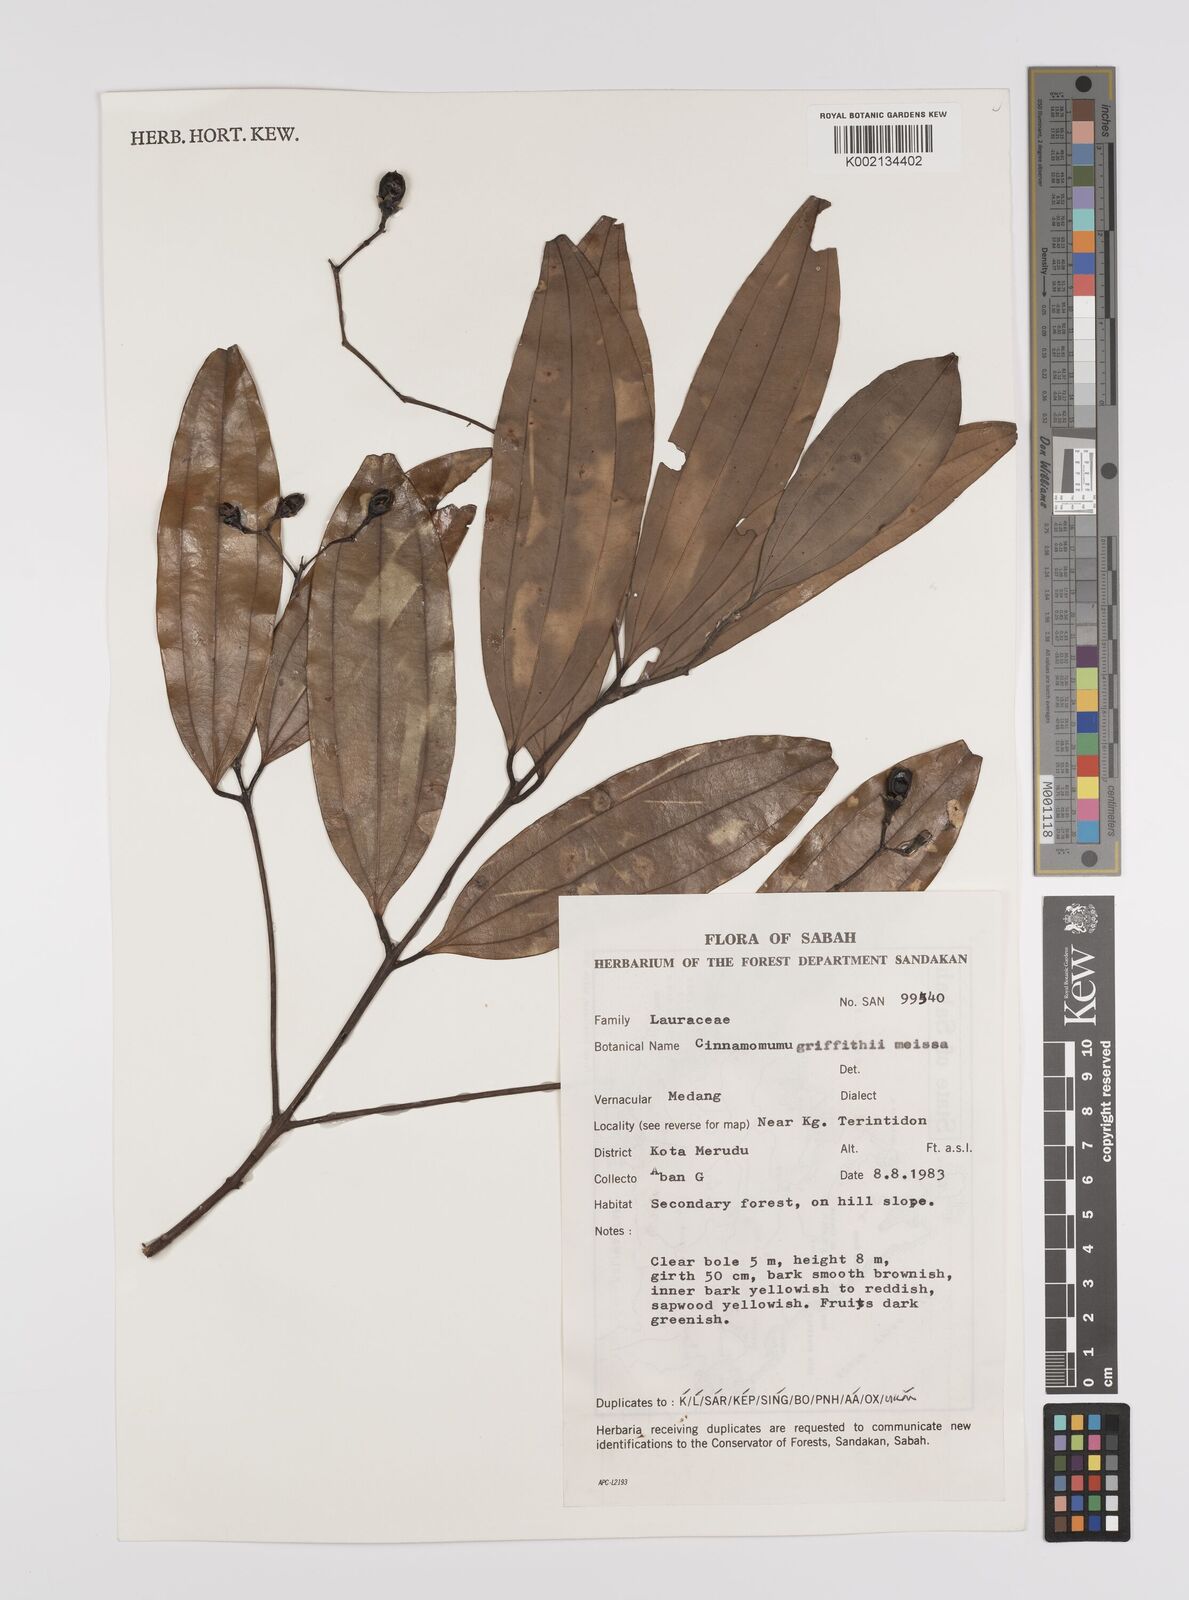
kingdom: Plantae
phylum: Tracheophyta
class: Magnoliopsida
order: Laurales
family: Lauraceae
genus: Cinnamomum
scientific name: Cinnamomum iners
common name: Wild cinnamon
